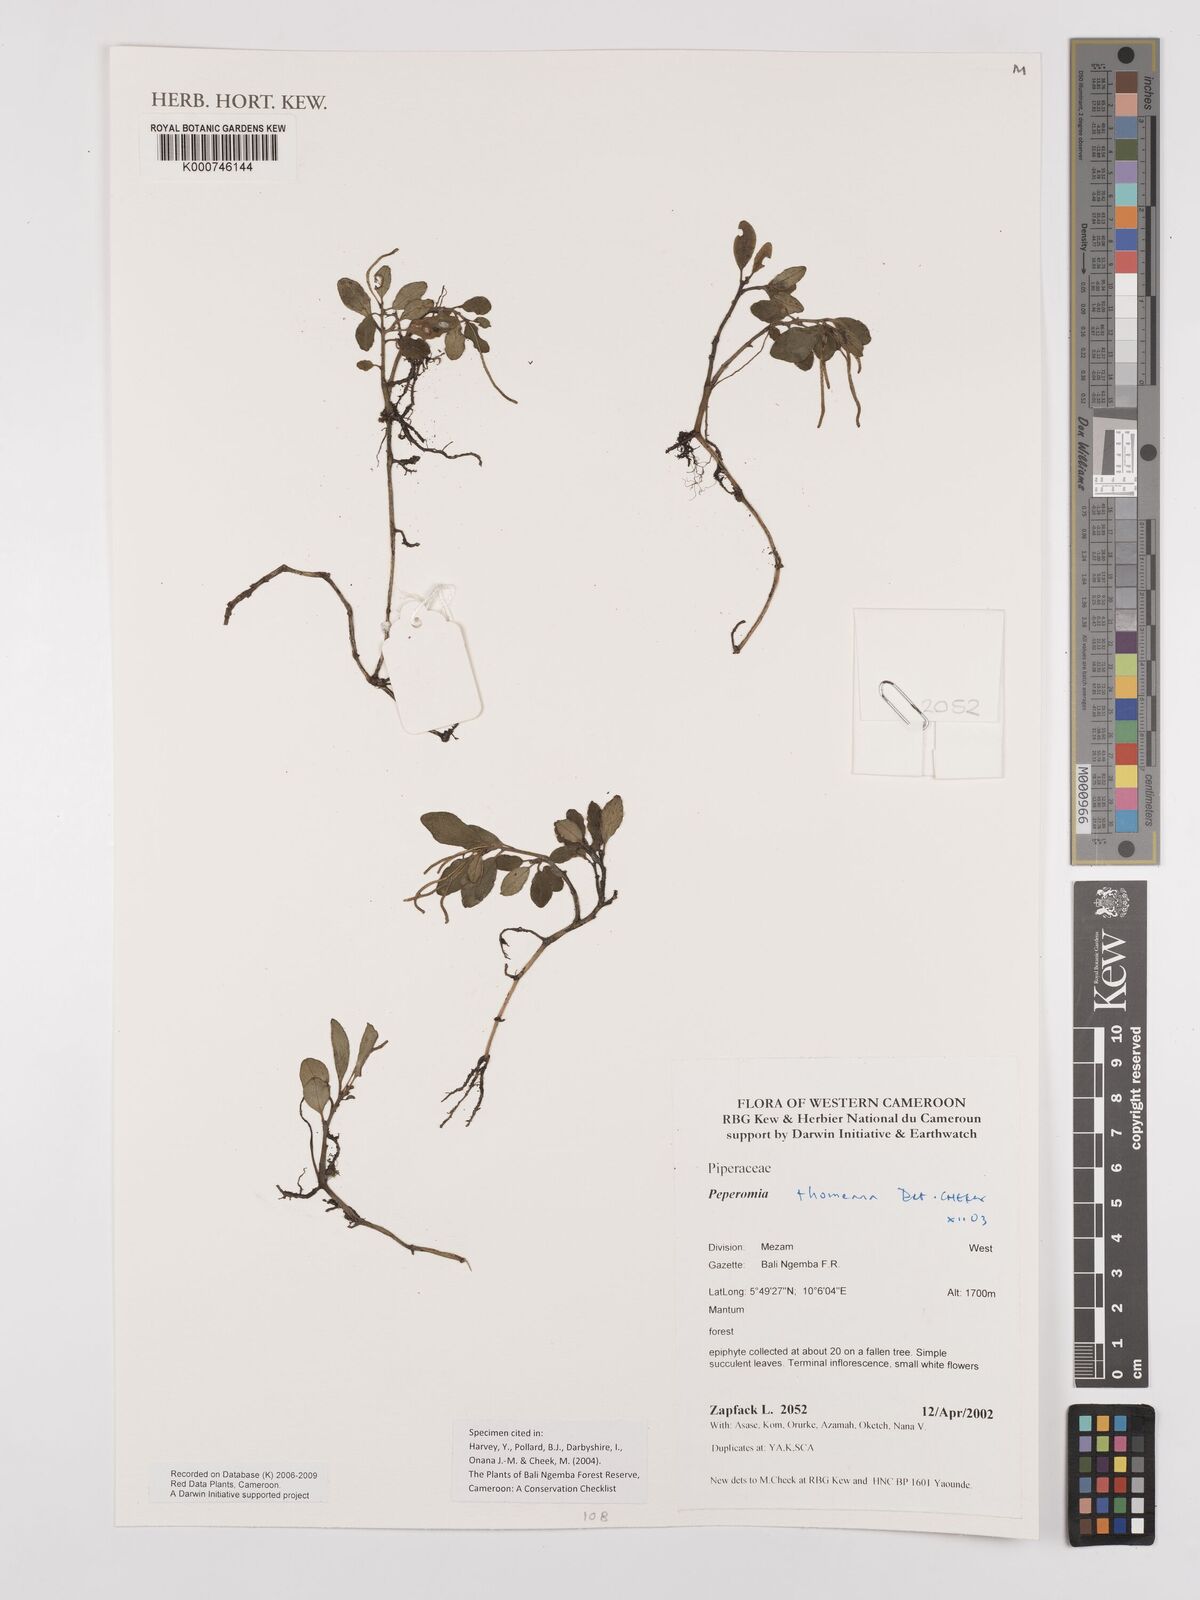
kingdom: Plantae
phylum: Tracheophyta
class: Magnoliopsida
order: Piperales
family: Piperaceae
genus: Peperomia
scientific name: Peperomia thomeana
